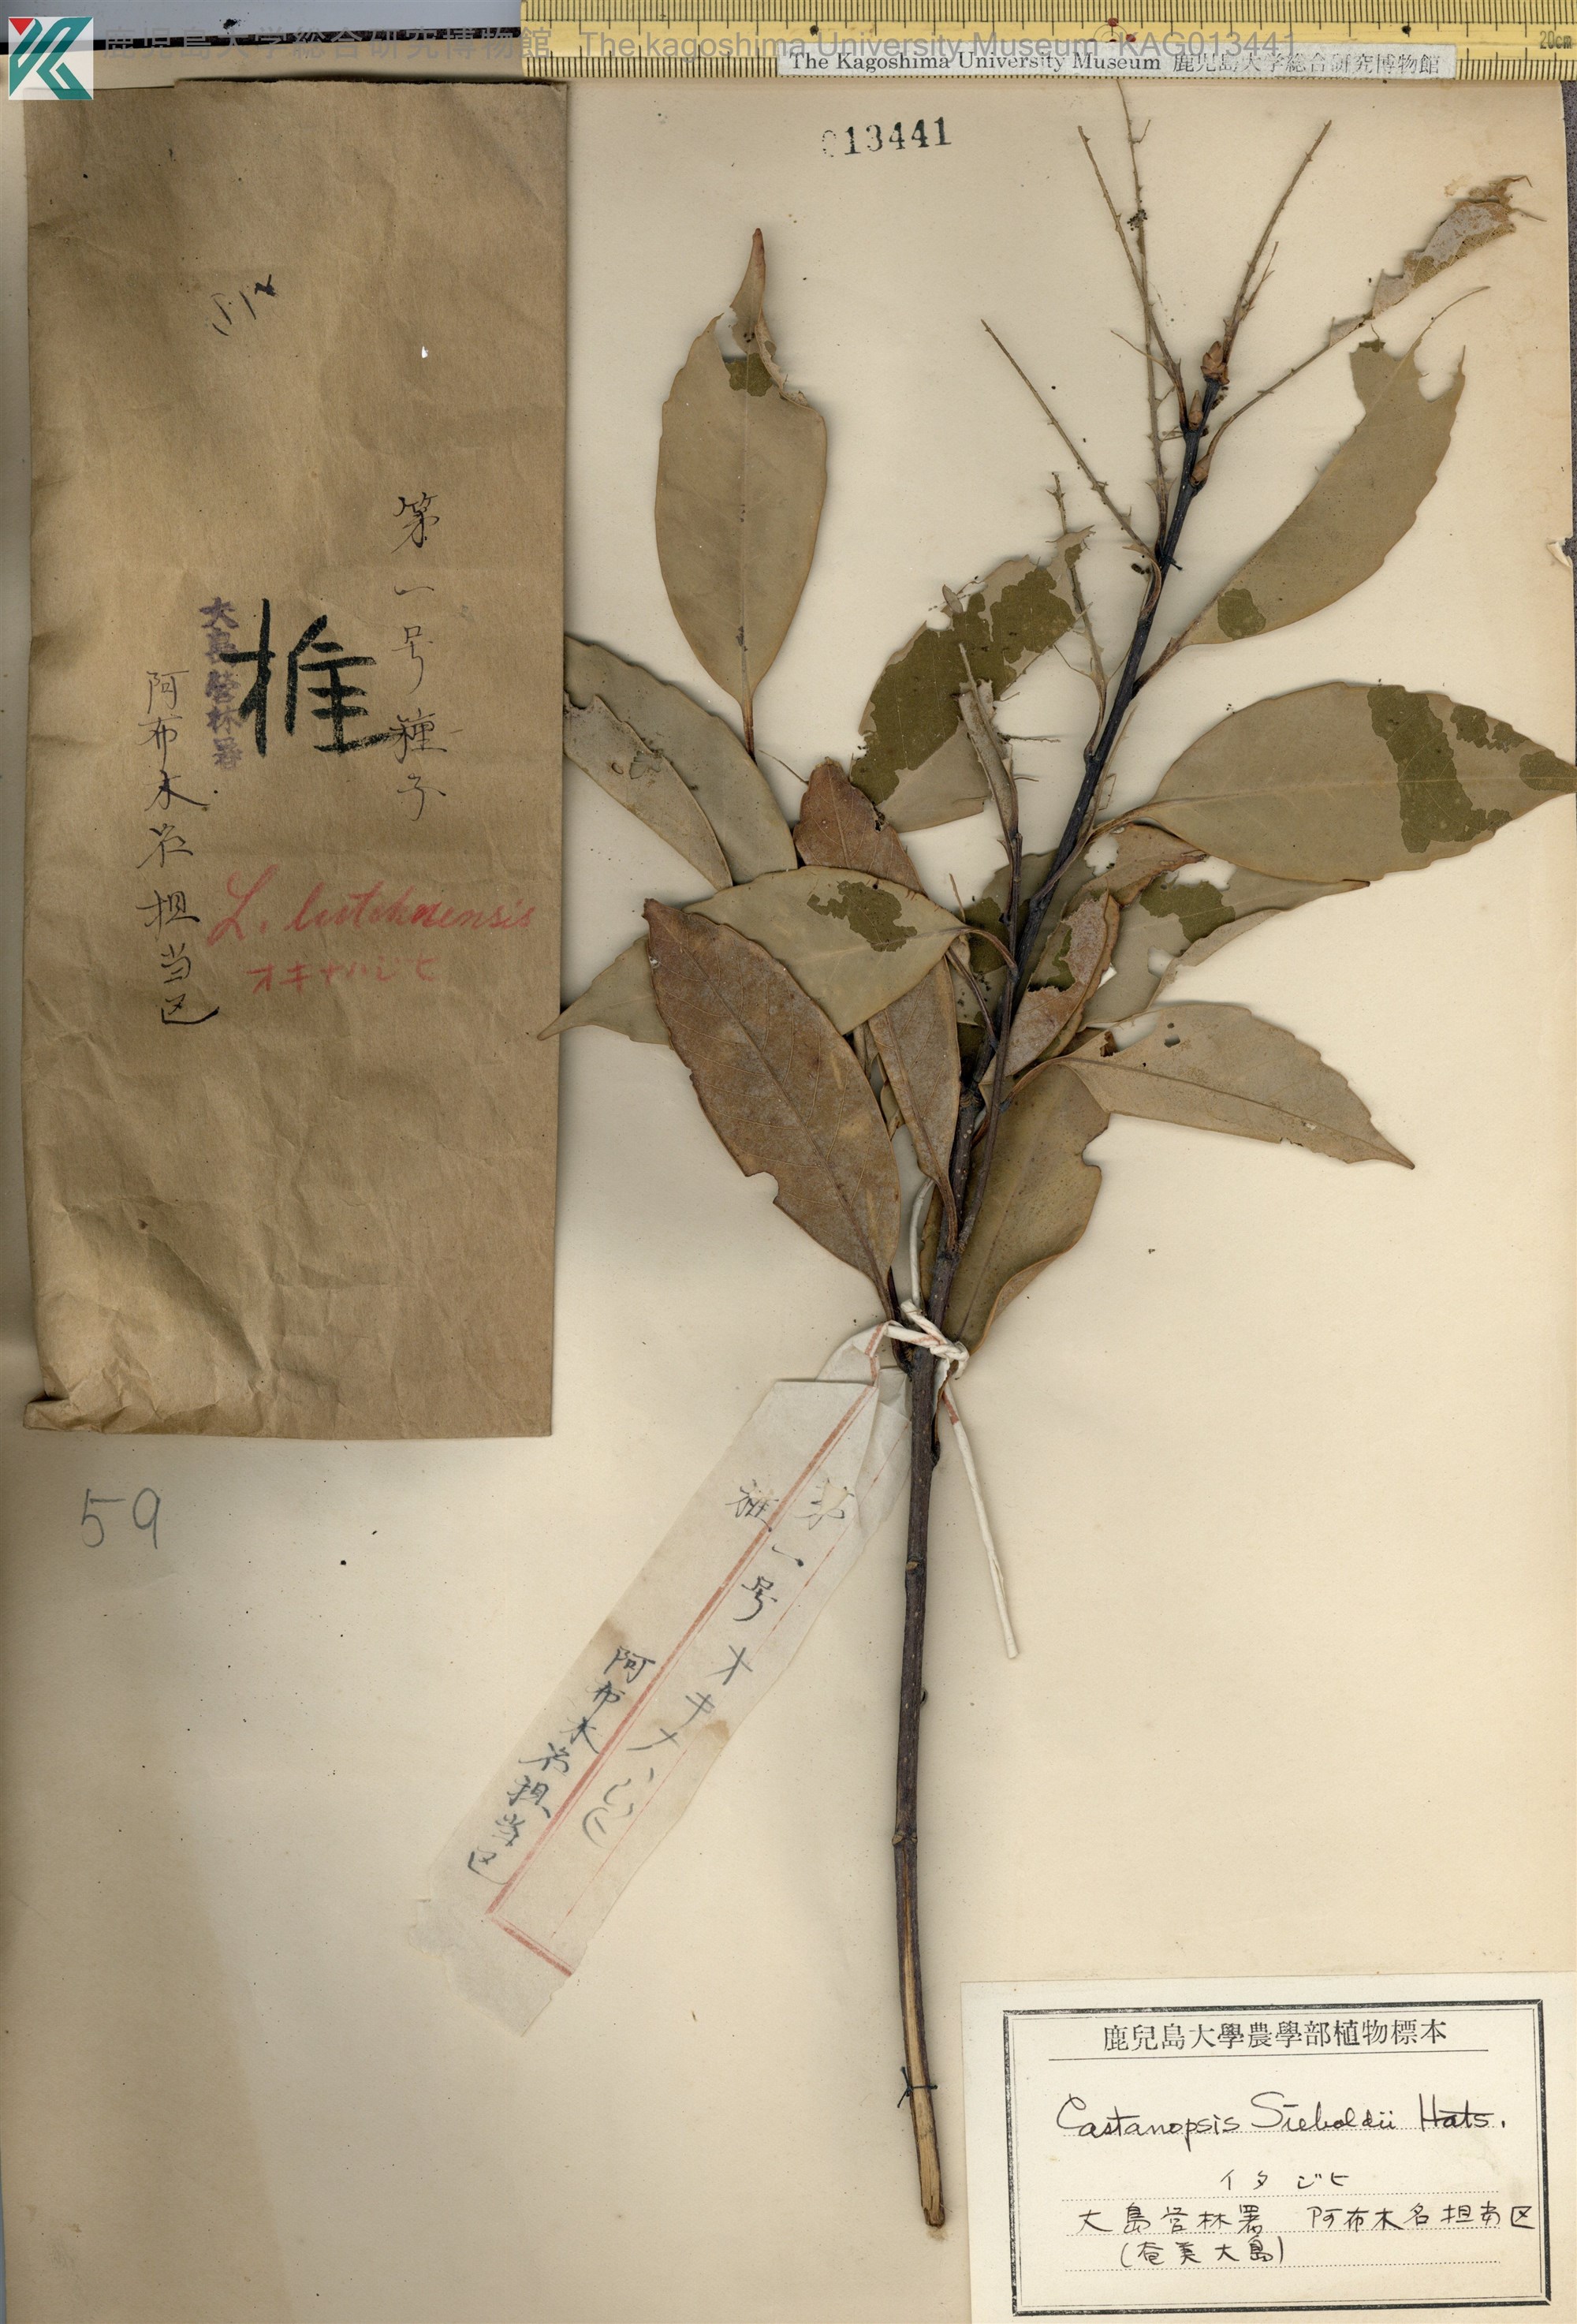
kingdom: Plantae
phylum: Tracheophyta
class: Magnoliopsida
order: Fagales
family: Fagaceae
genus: Castanopsis
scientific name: Castanopsis sieboldii
